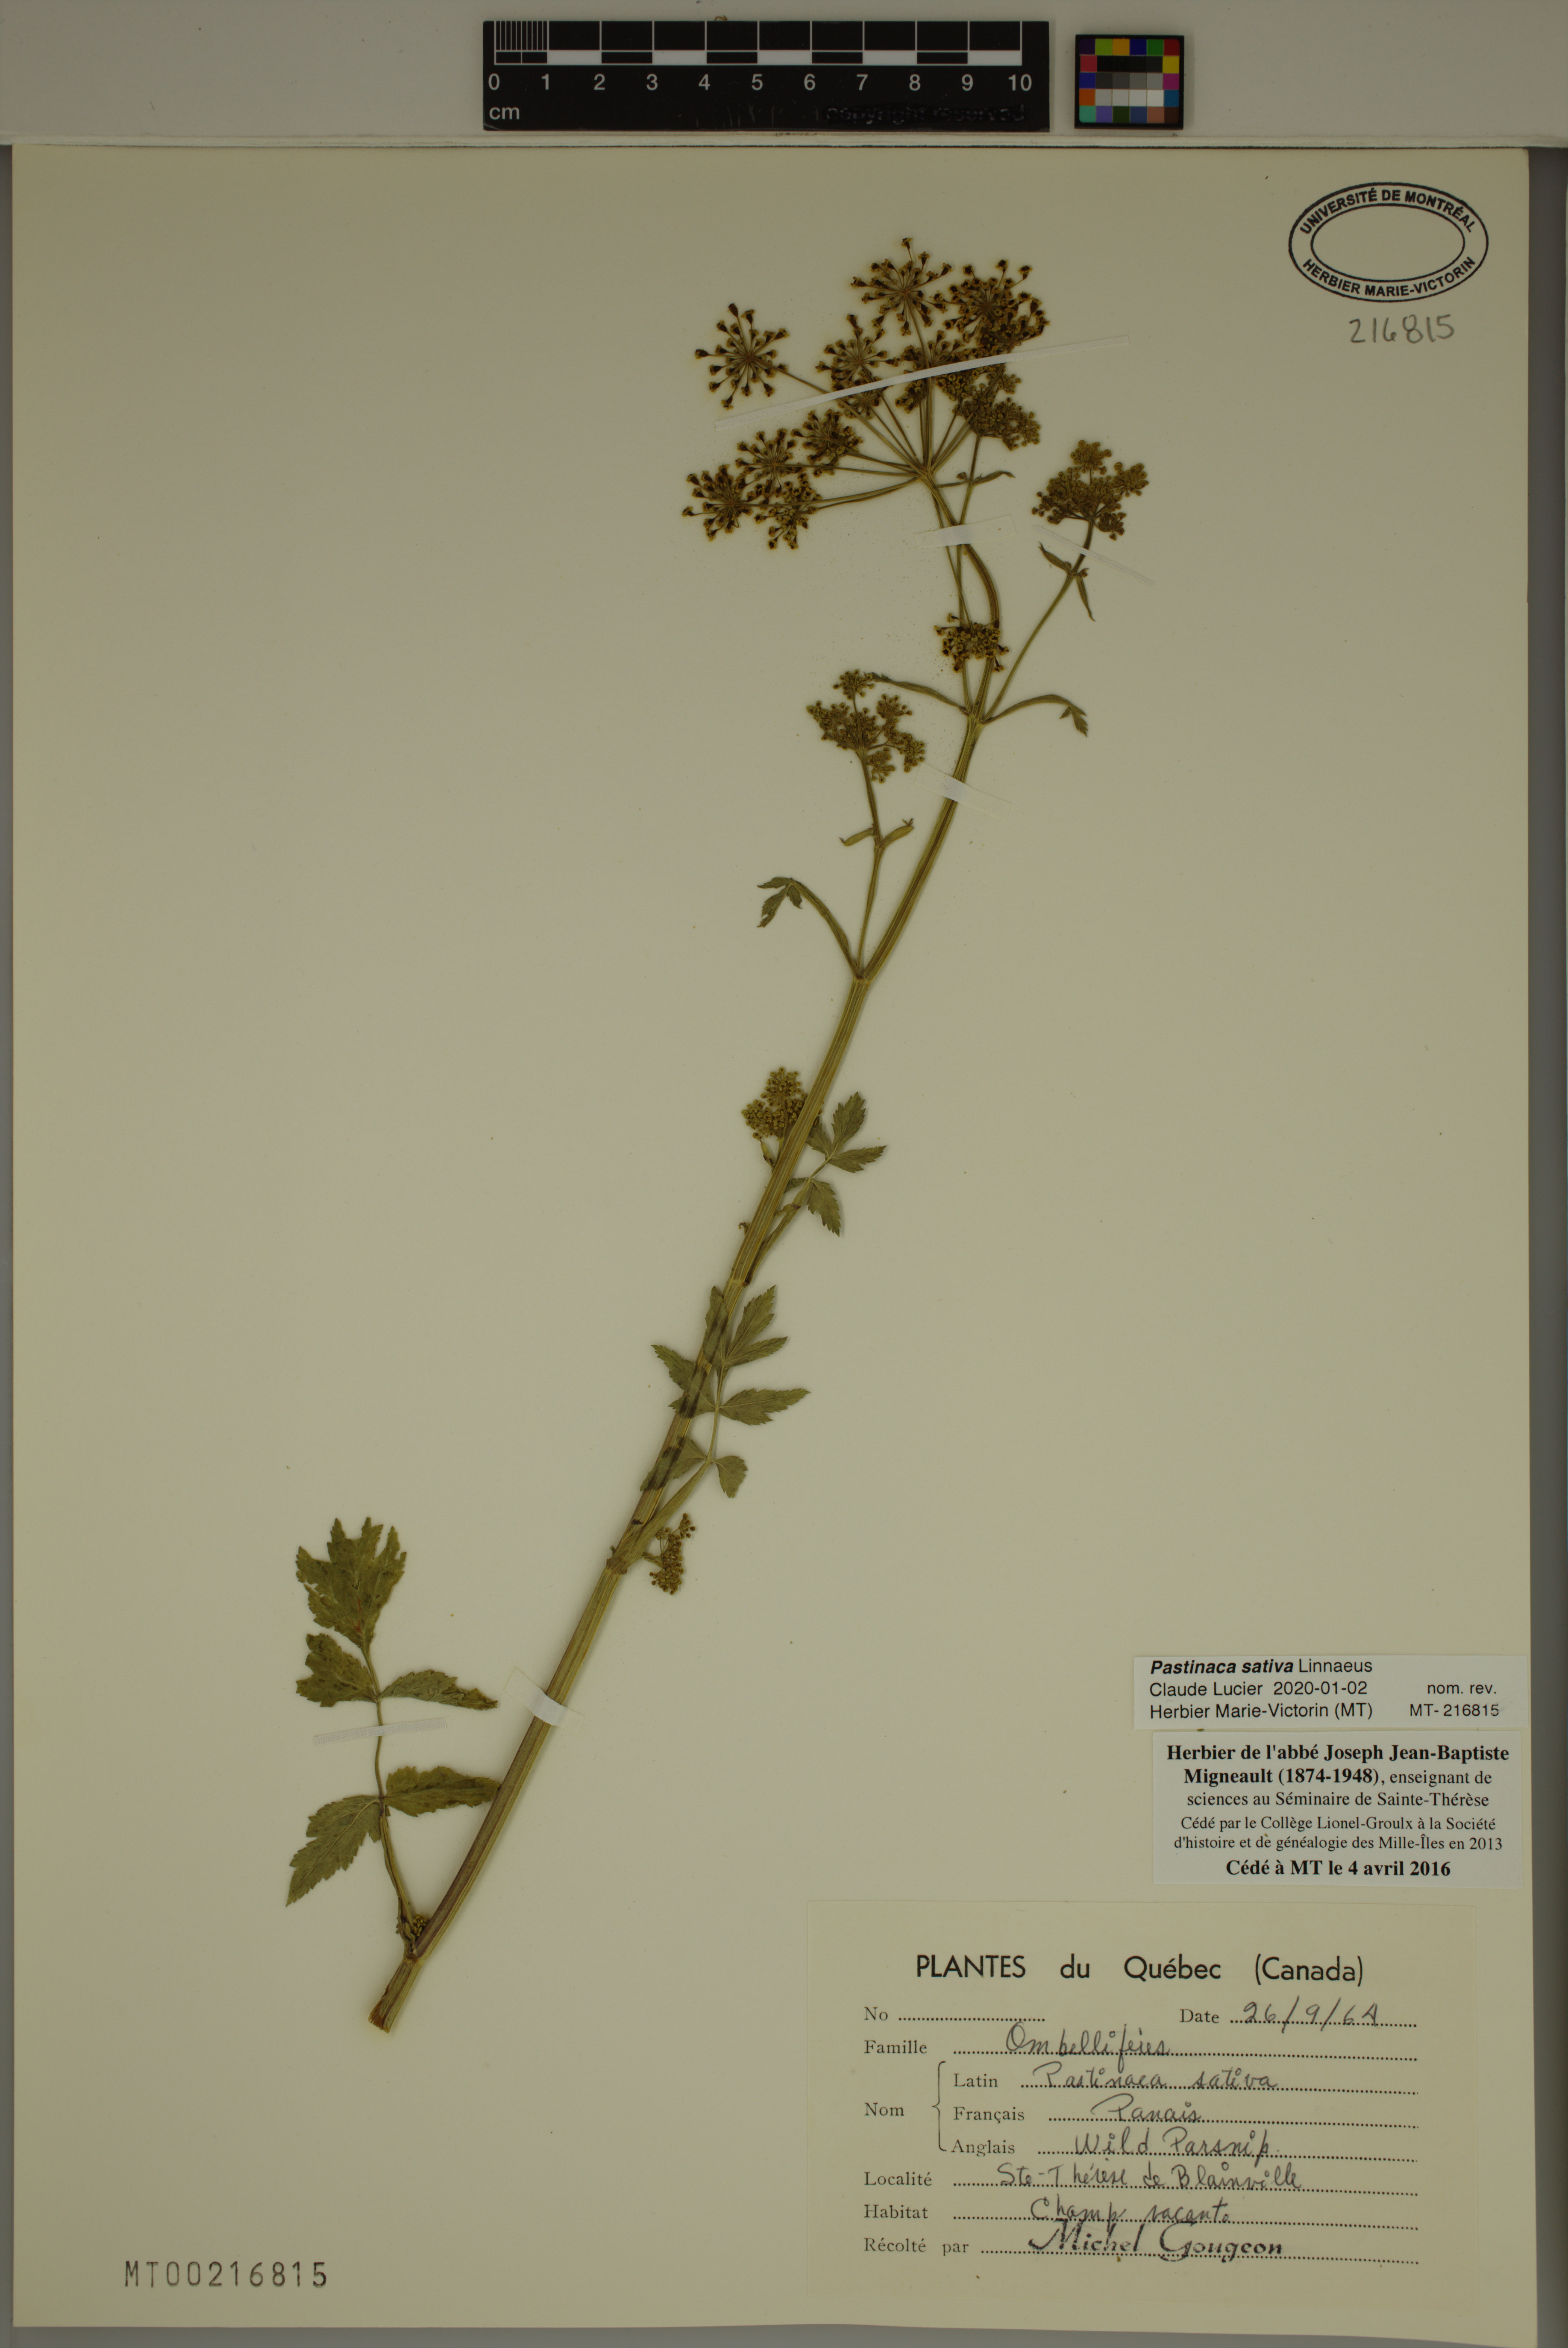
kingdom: Plantae
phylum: Tracheophyta
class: Magnoliopsida
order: Apiales
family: Apiaceae
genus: Pastinaca
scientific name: Pastinaca sativa
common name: Wild parsnip
